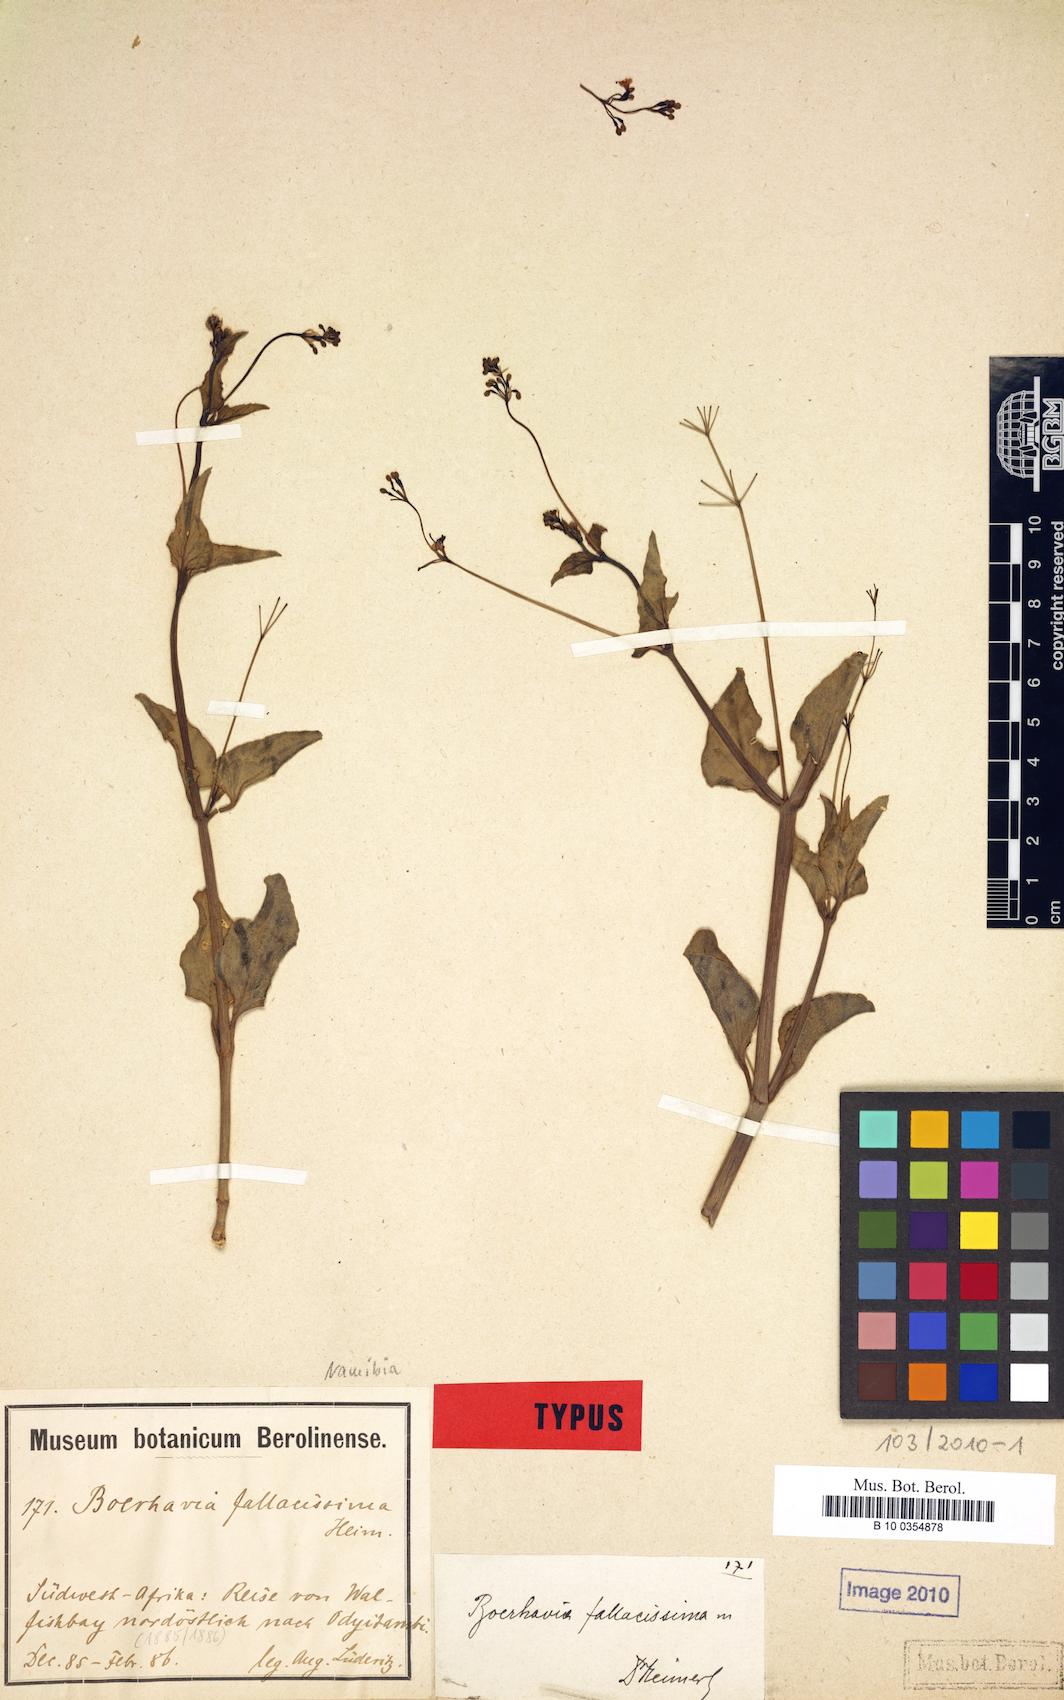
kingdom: Plantae
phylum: Tracheophyta
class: Magnoliopsida
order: Caryophyllales
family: Nyctaginaceae
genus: Commicarpus
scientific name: Commicarpus fallacissimus
